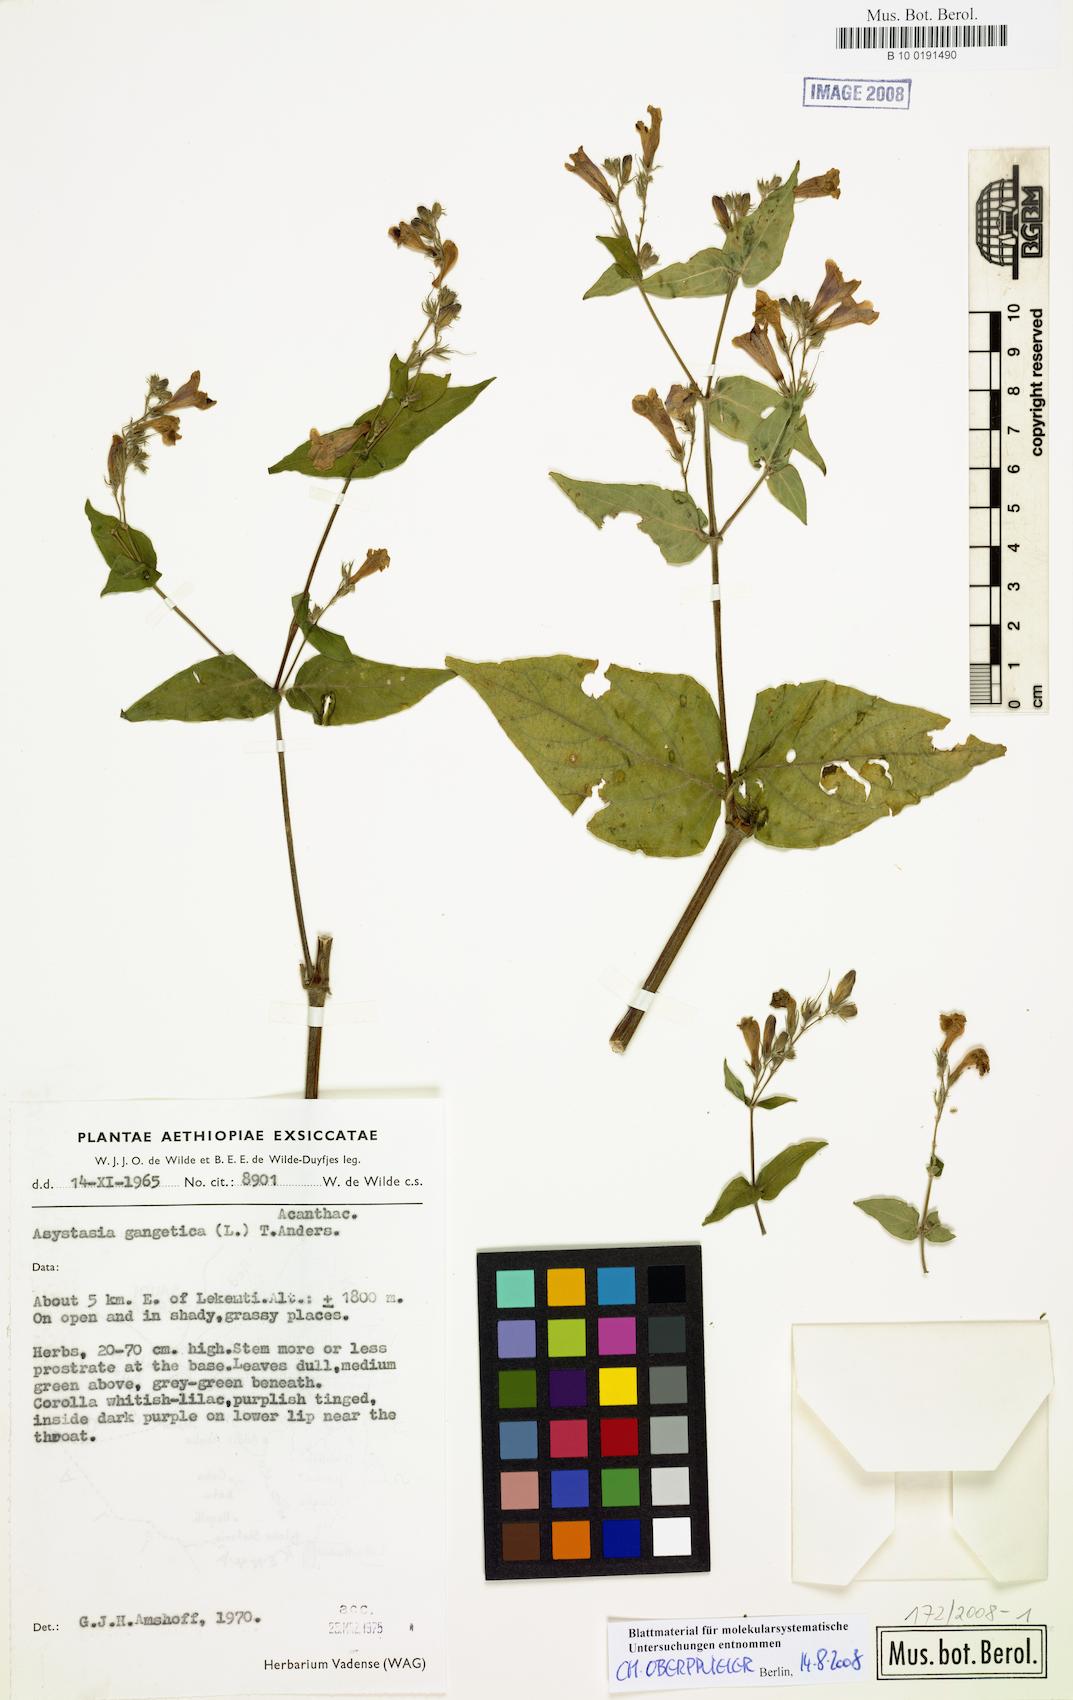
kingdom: Plantae
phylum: Tracheophyta
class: Magnoliopsida
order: Lamiales
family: Acanthaceae
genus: Asystasia
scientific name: Asystasia gangetica
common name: Chinese violet
